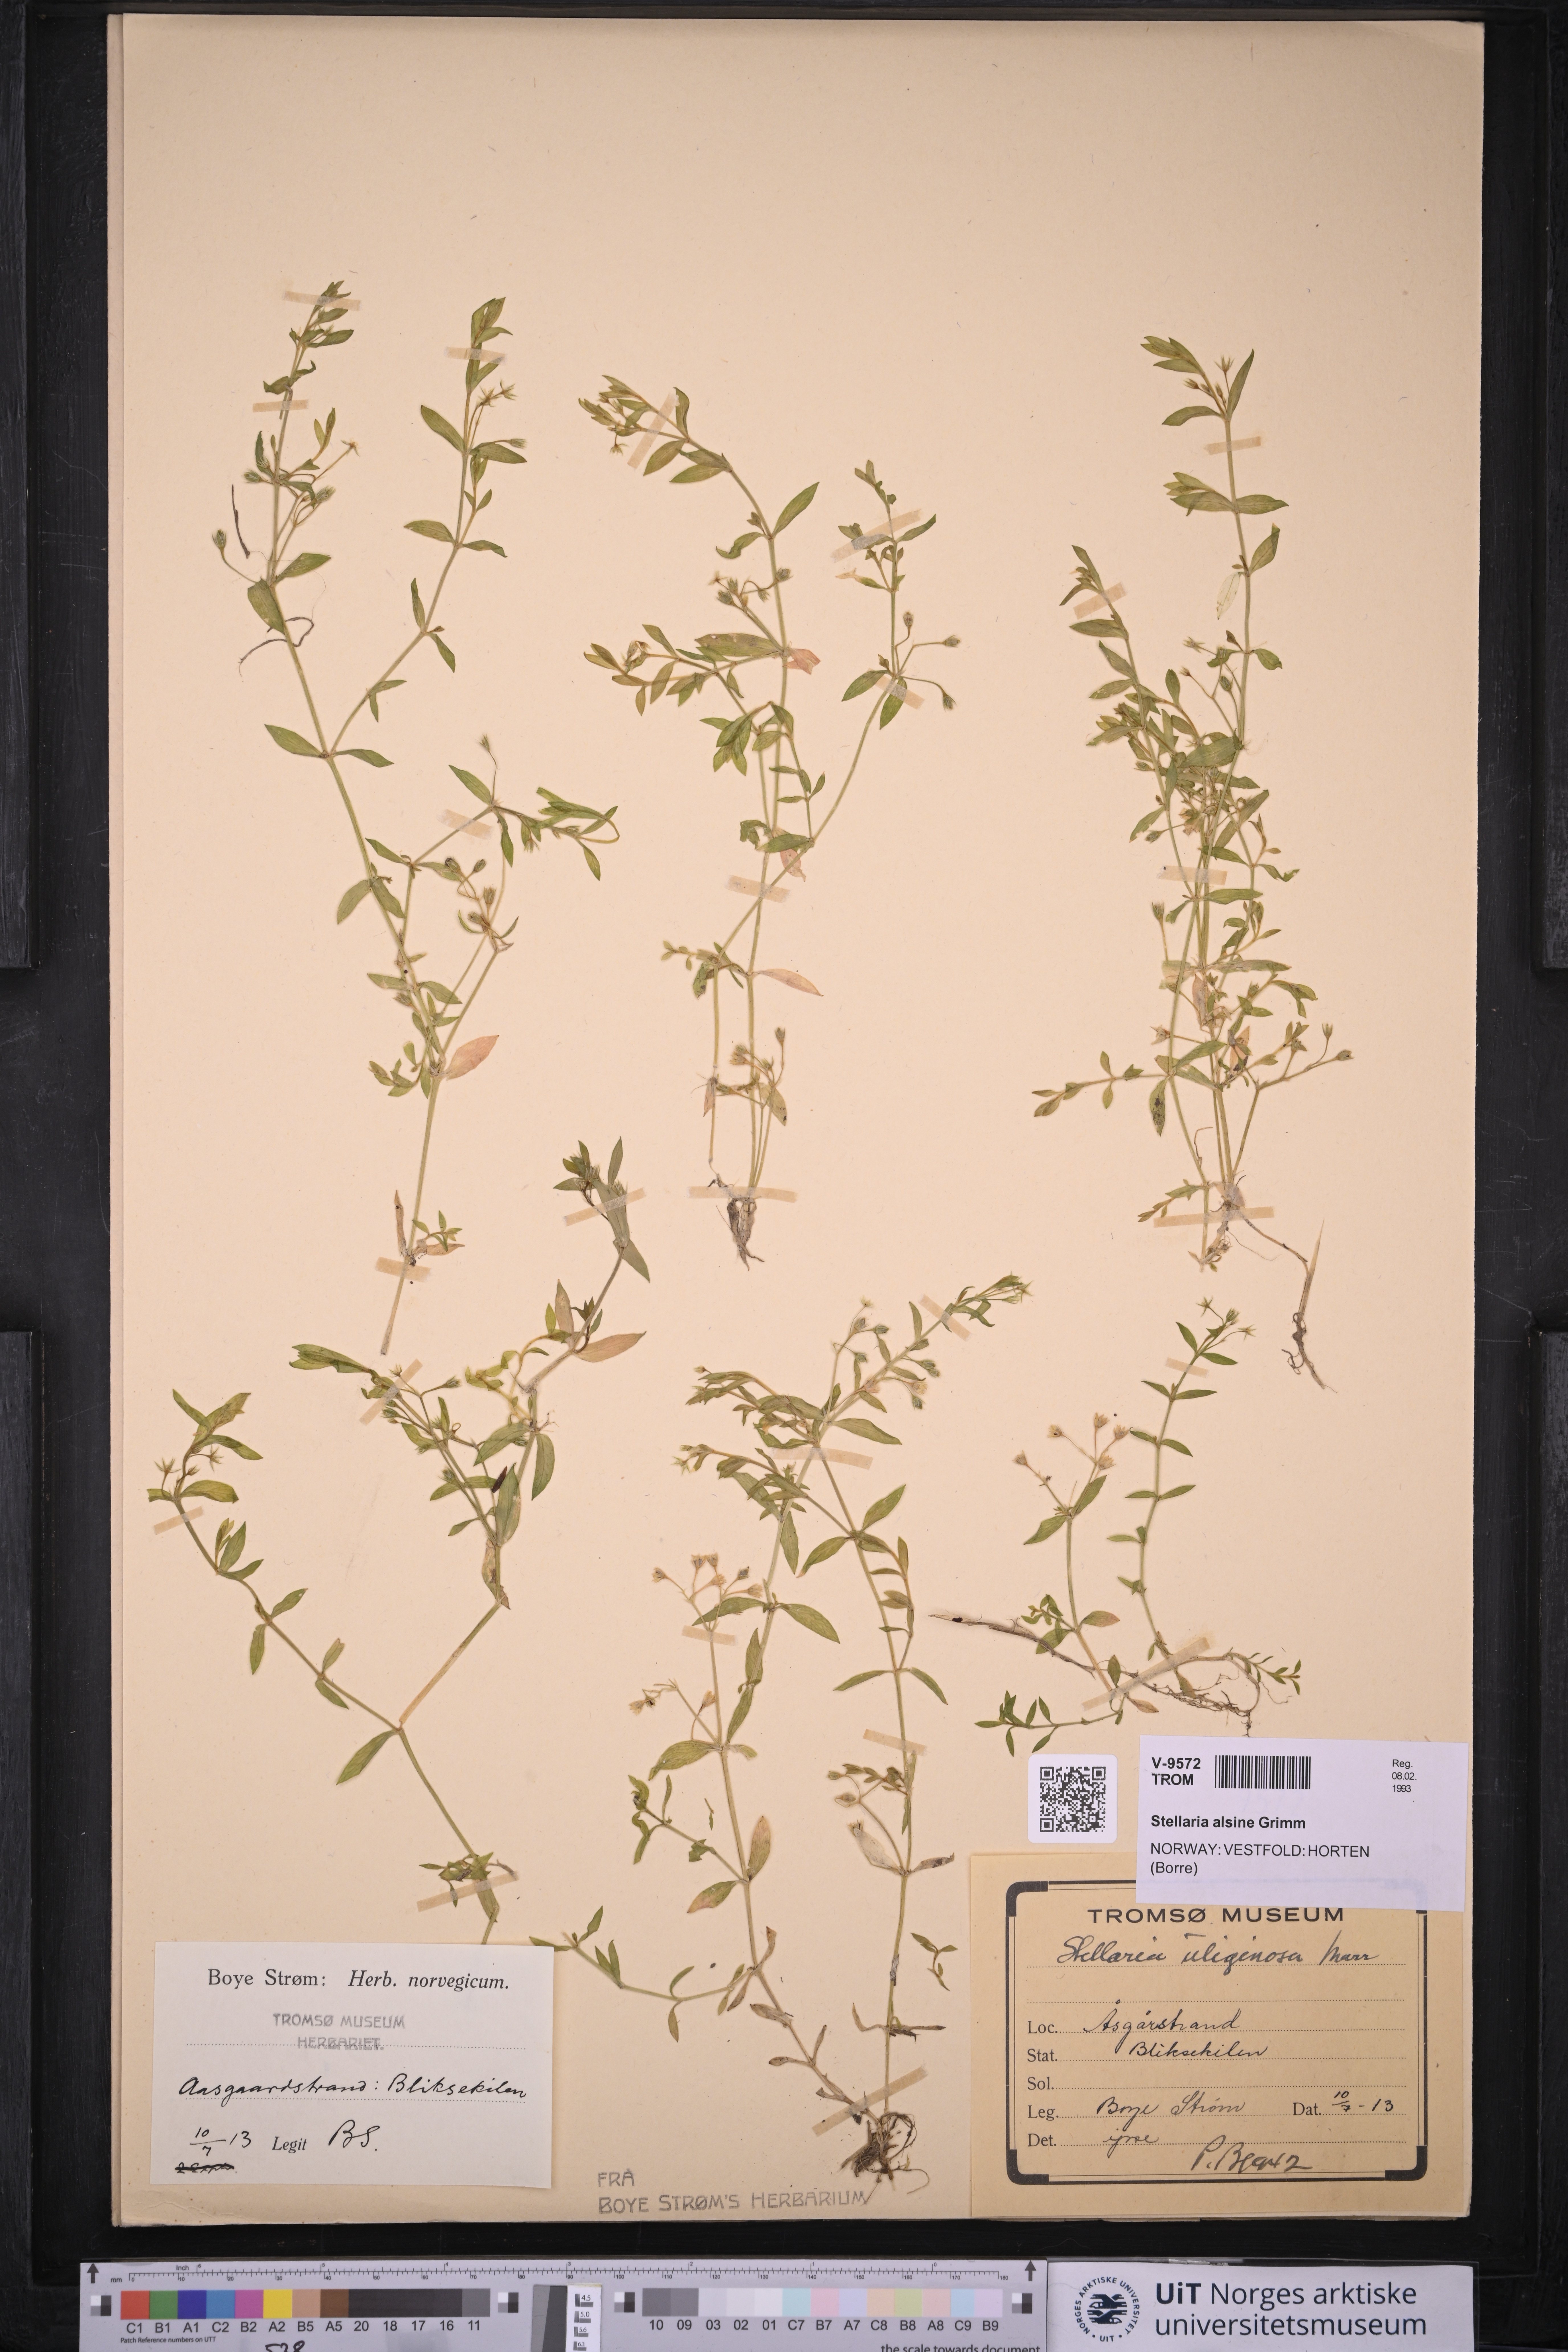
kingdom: Plantae
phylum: Tracheophyta
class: Magnoliopsida
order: Caryophyllales
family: Caryophyllaceae
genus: Stellaria
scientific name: Stellaria alsine
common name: Bog stitchwort
